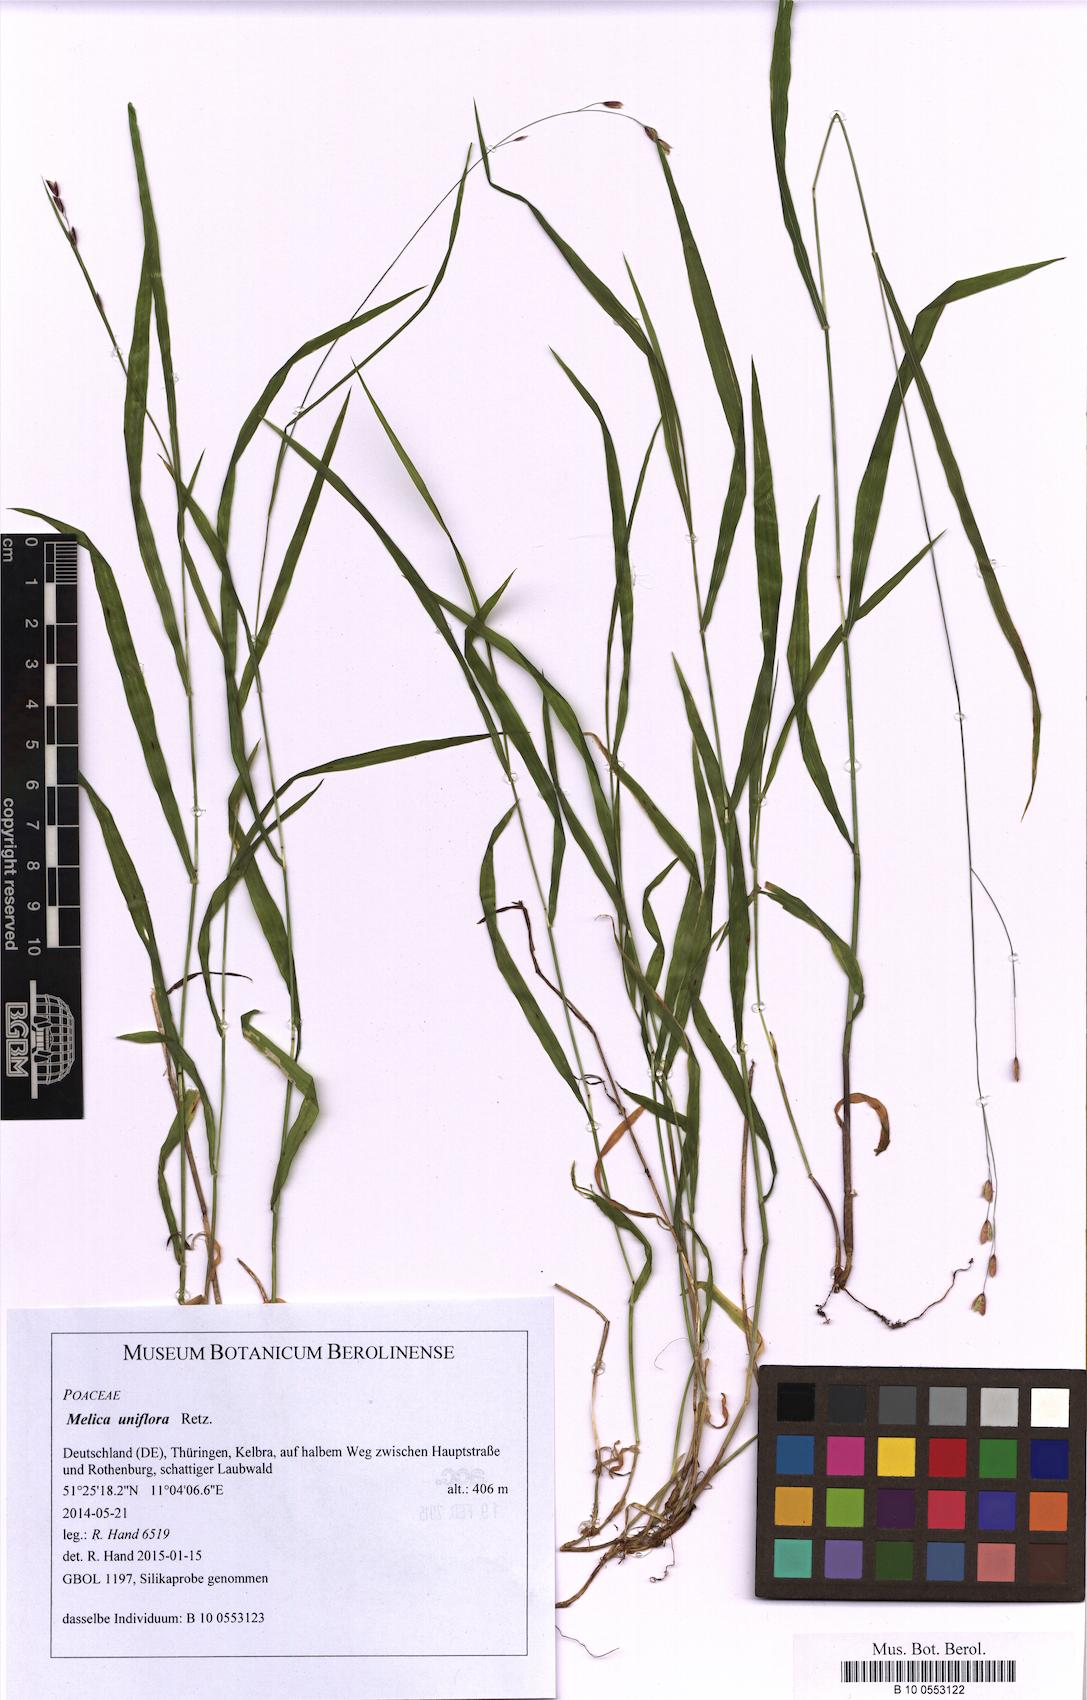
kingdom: Plantae
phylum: Tracheophyta
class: Liliopsida
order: Poales
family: Poaceae
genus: Melica
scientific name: Melica uniflora
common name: Wood melick
